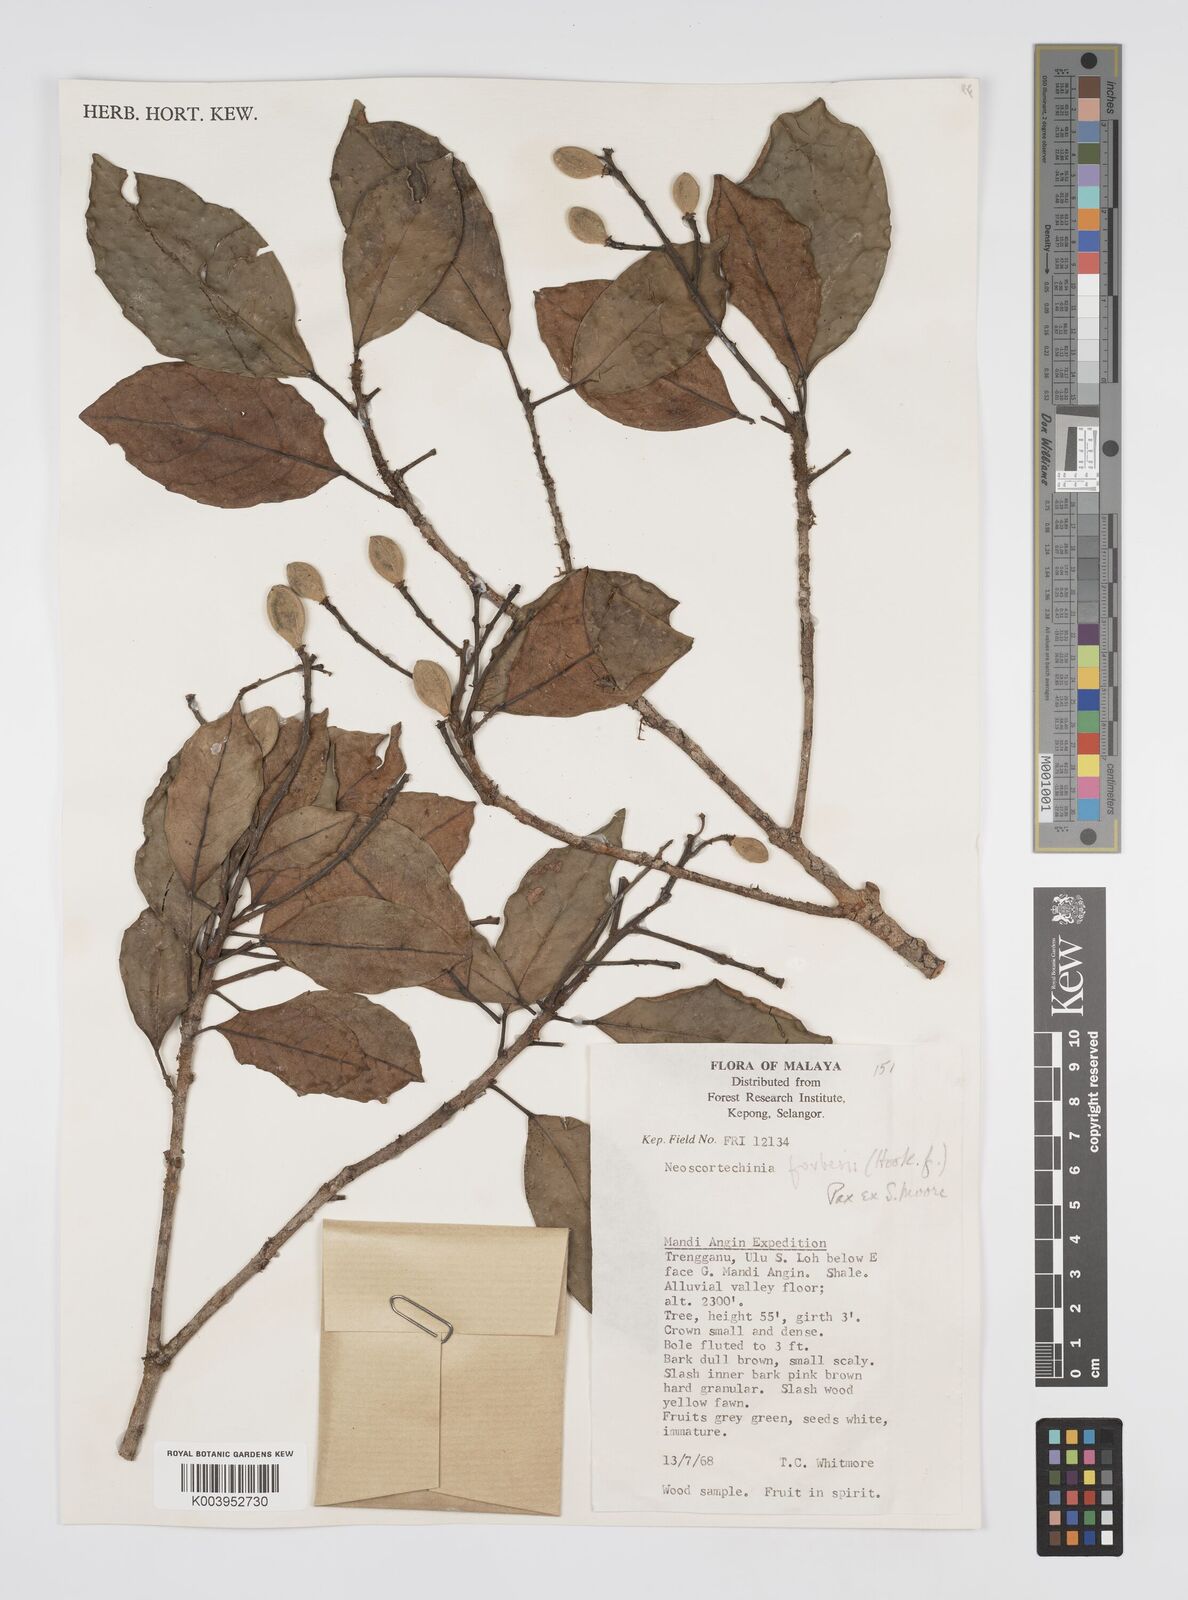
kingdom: Plantae
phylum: Tracheophyta
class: Magnoliopsida
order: Malpighiales
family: Euphorbiaceae
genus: Neoscortechinia
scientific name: Neoscortechinia philippinensis
